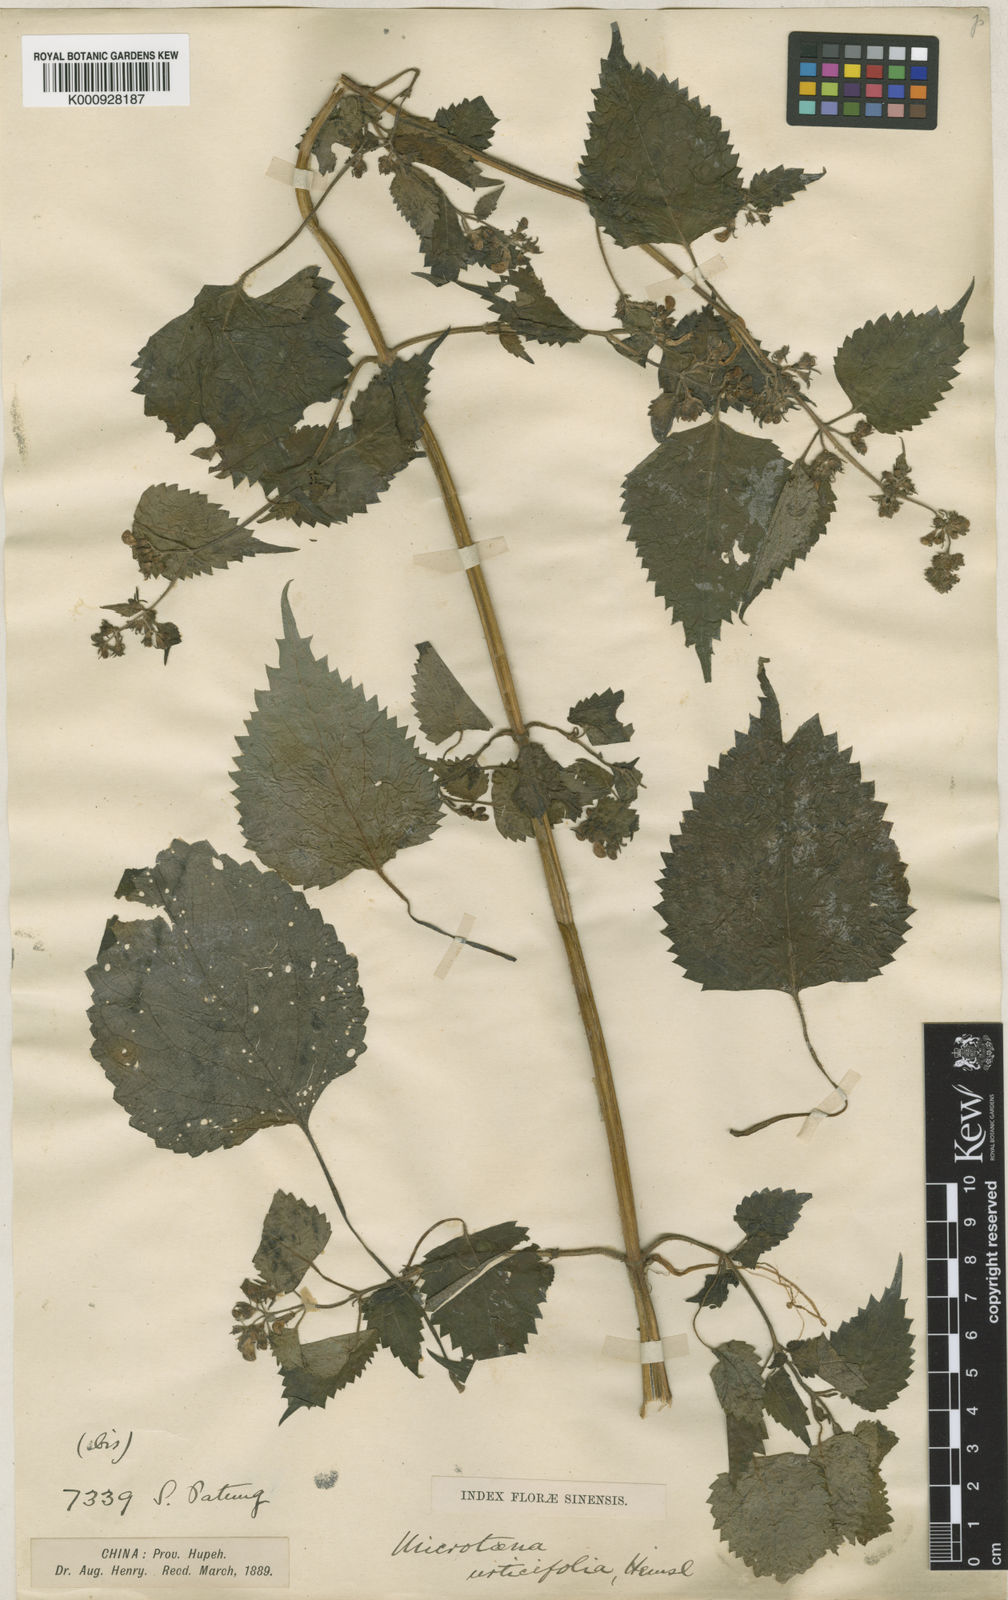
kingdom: Plantae
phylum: Tracheophyta
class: Magnoliopsida
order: Lamiales
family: Lamiaceae
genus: Microtoena
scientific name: Microtoena urticifolia
